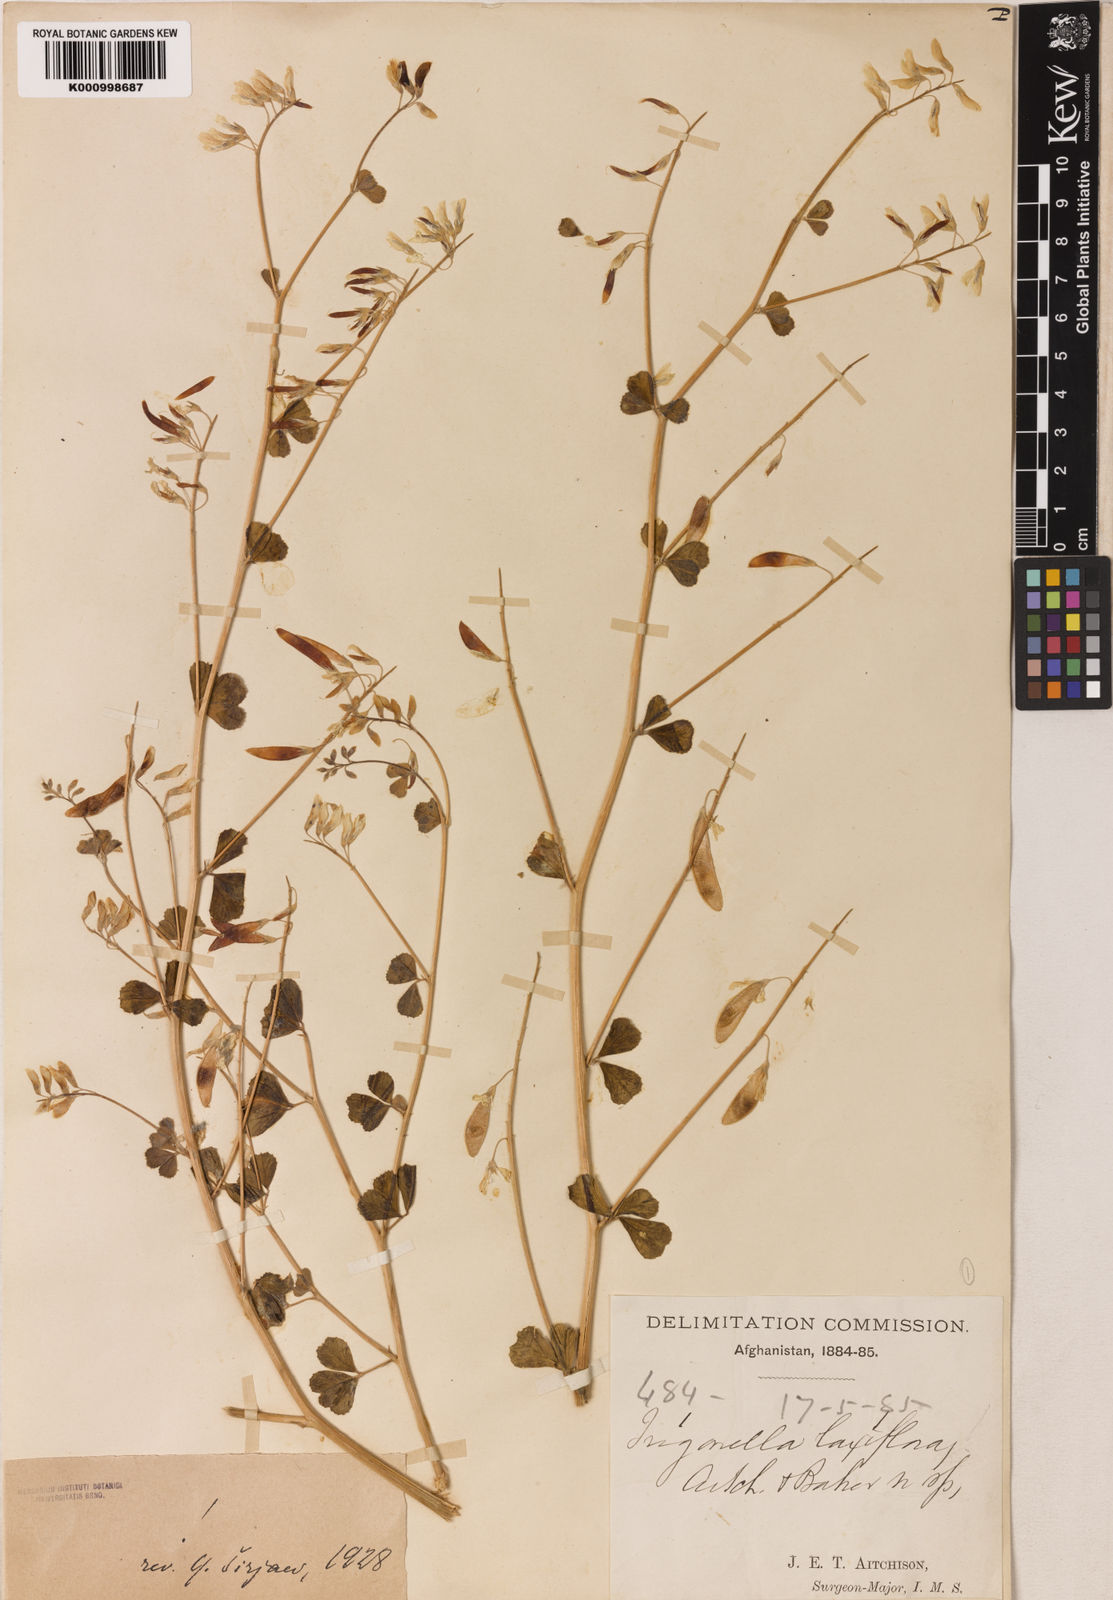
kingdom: Plantae
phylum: Tracheophyta
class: Magnoliopsida
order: Fabales
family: Fabaceae
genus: Trigonella
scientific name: Trigonella laxiflora
